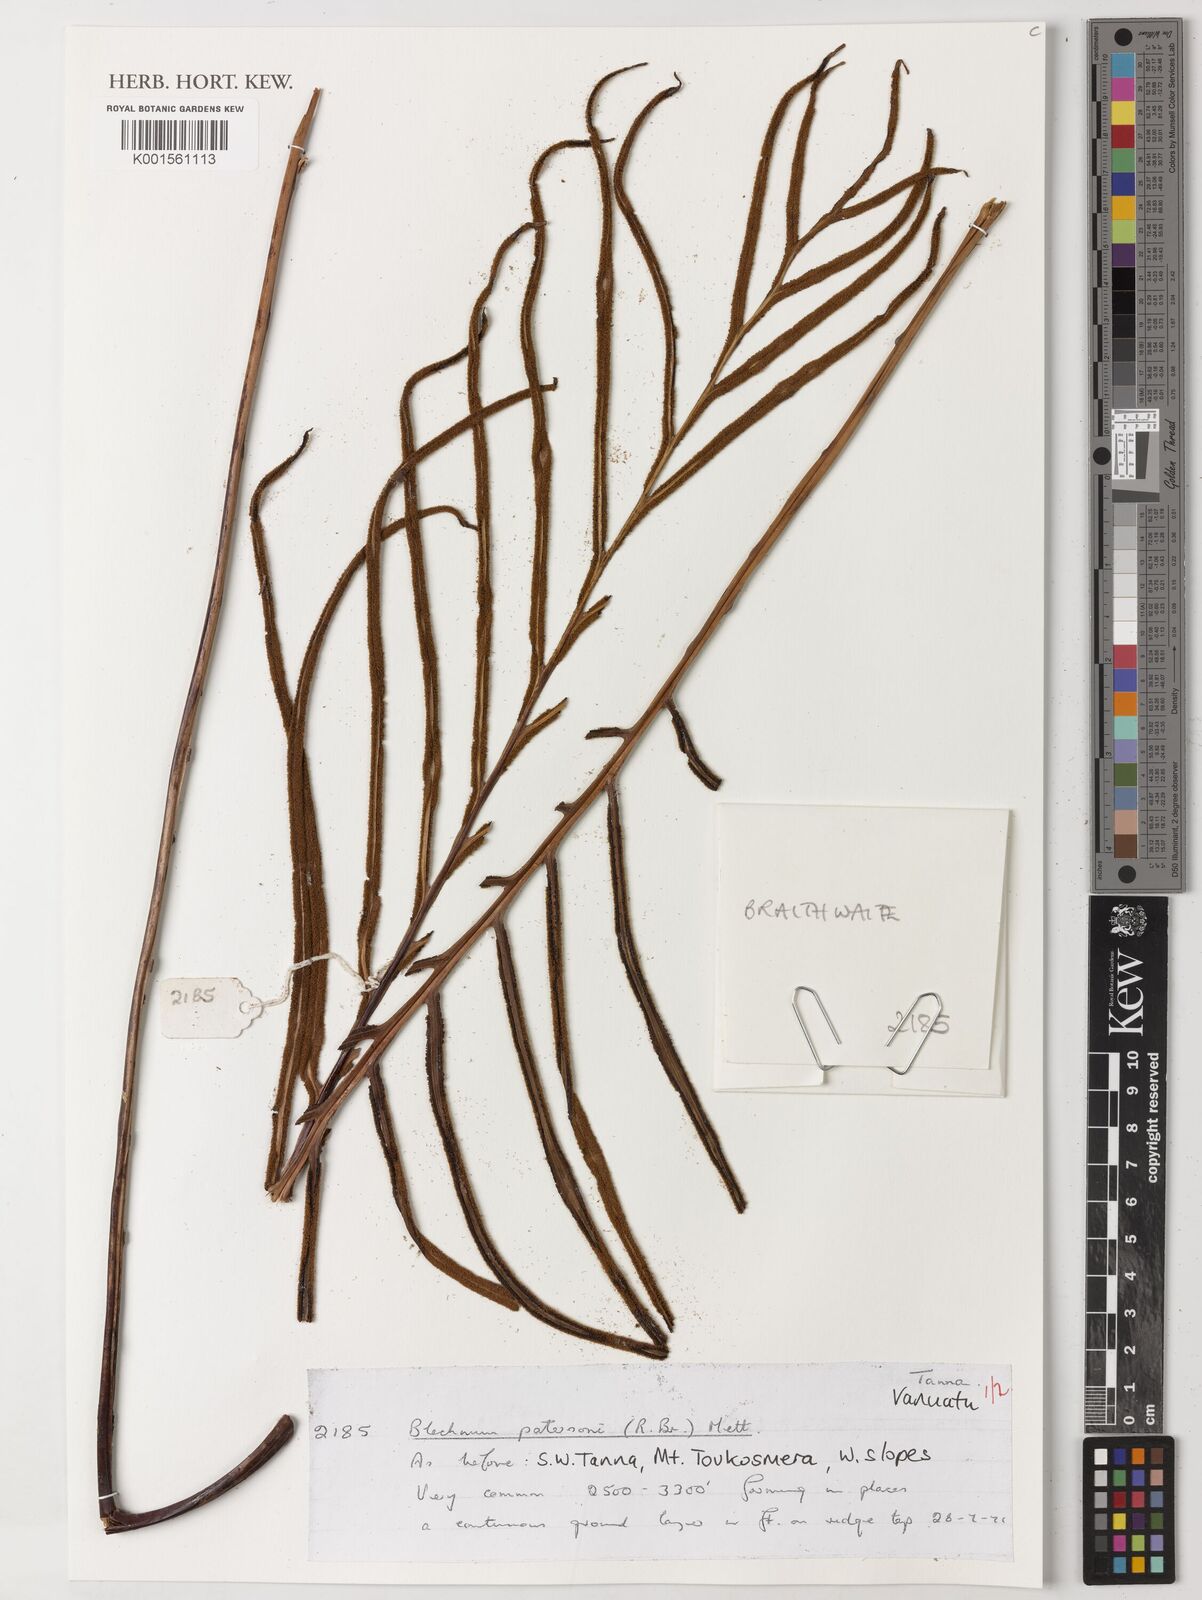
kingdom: Plantae
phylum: Tracheophyta
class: Polypodiopsida
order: Polypodiales
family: Blechnaceae
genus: Austroblechnum
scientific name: Austroblechnum patersonii
